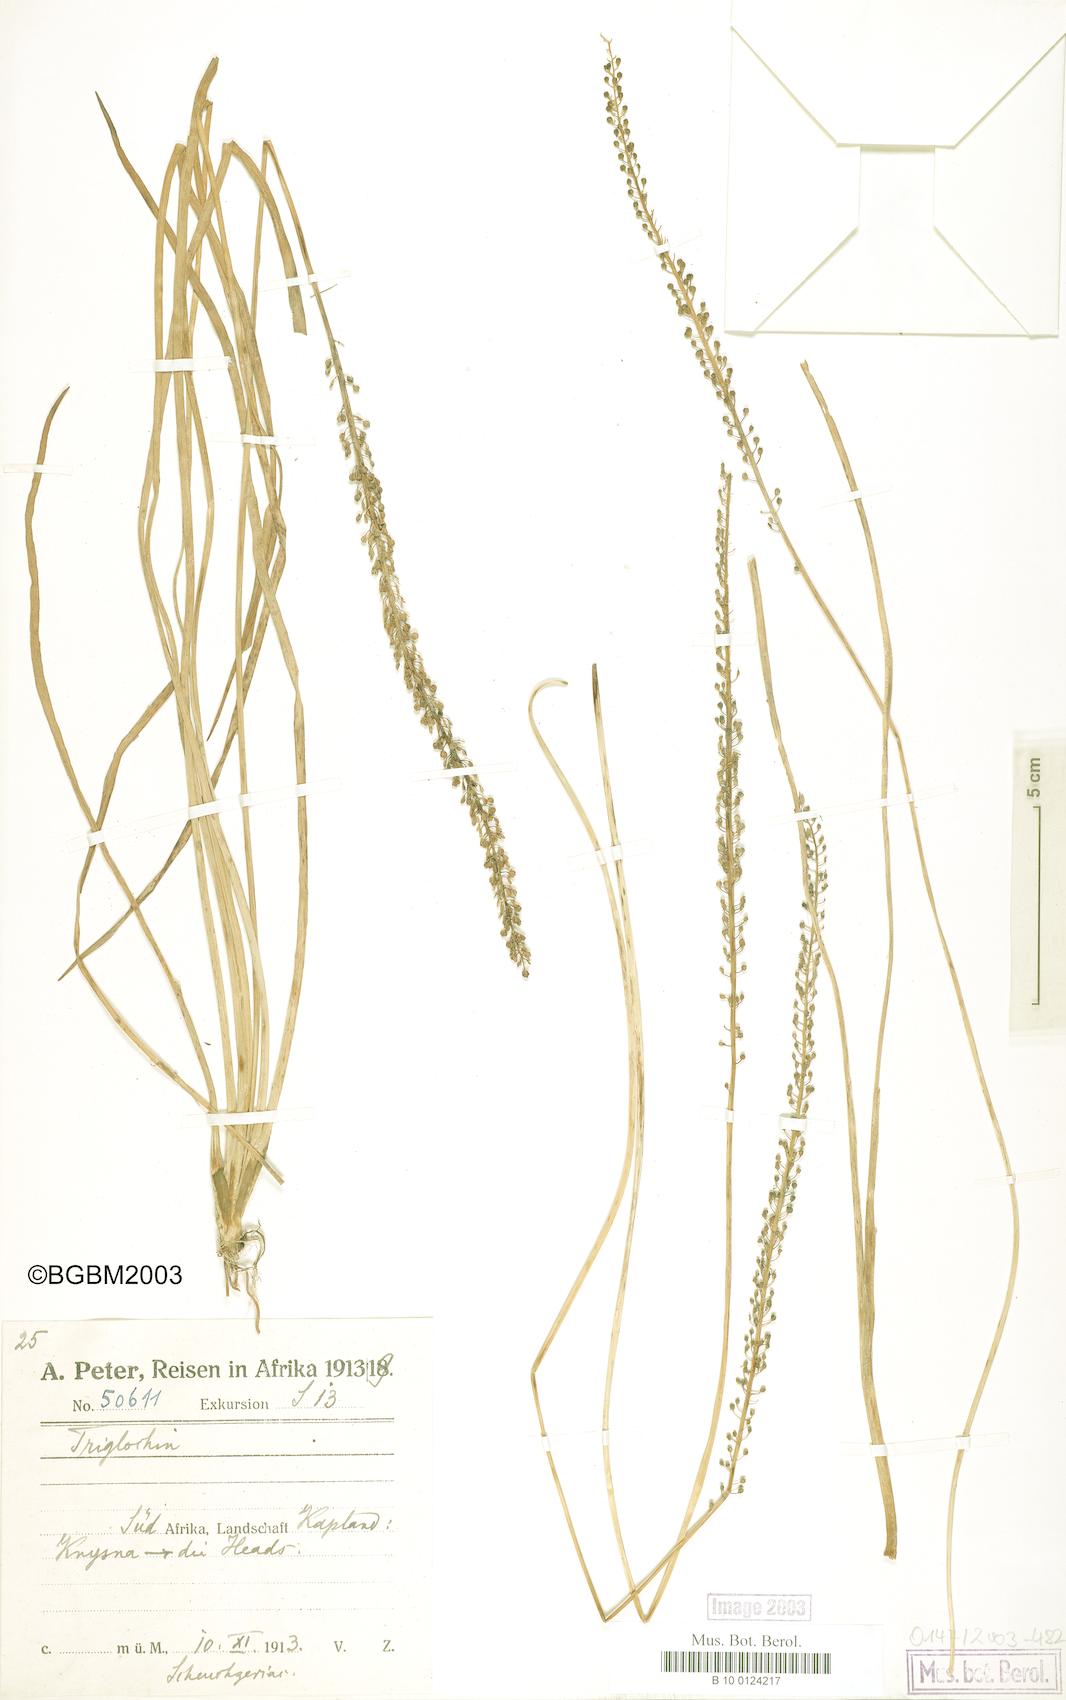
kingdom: Plantae
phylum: Tracheophyta
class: Liliopsida
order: Alismatales
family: Juncaginaceae
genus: Triglochin
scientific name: Triglochin striata
